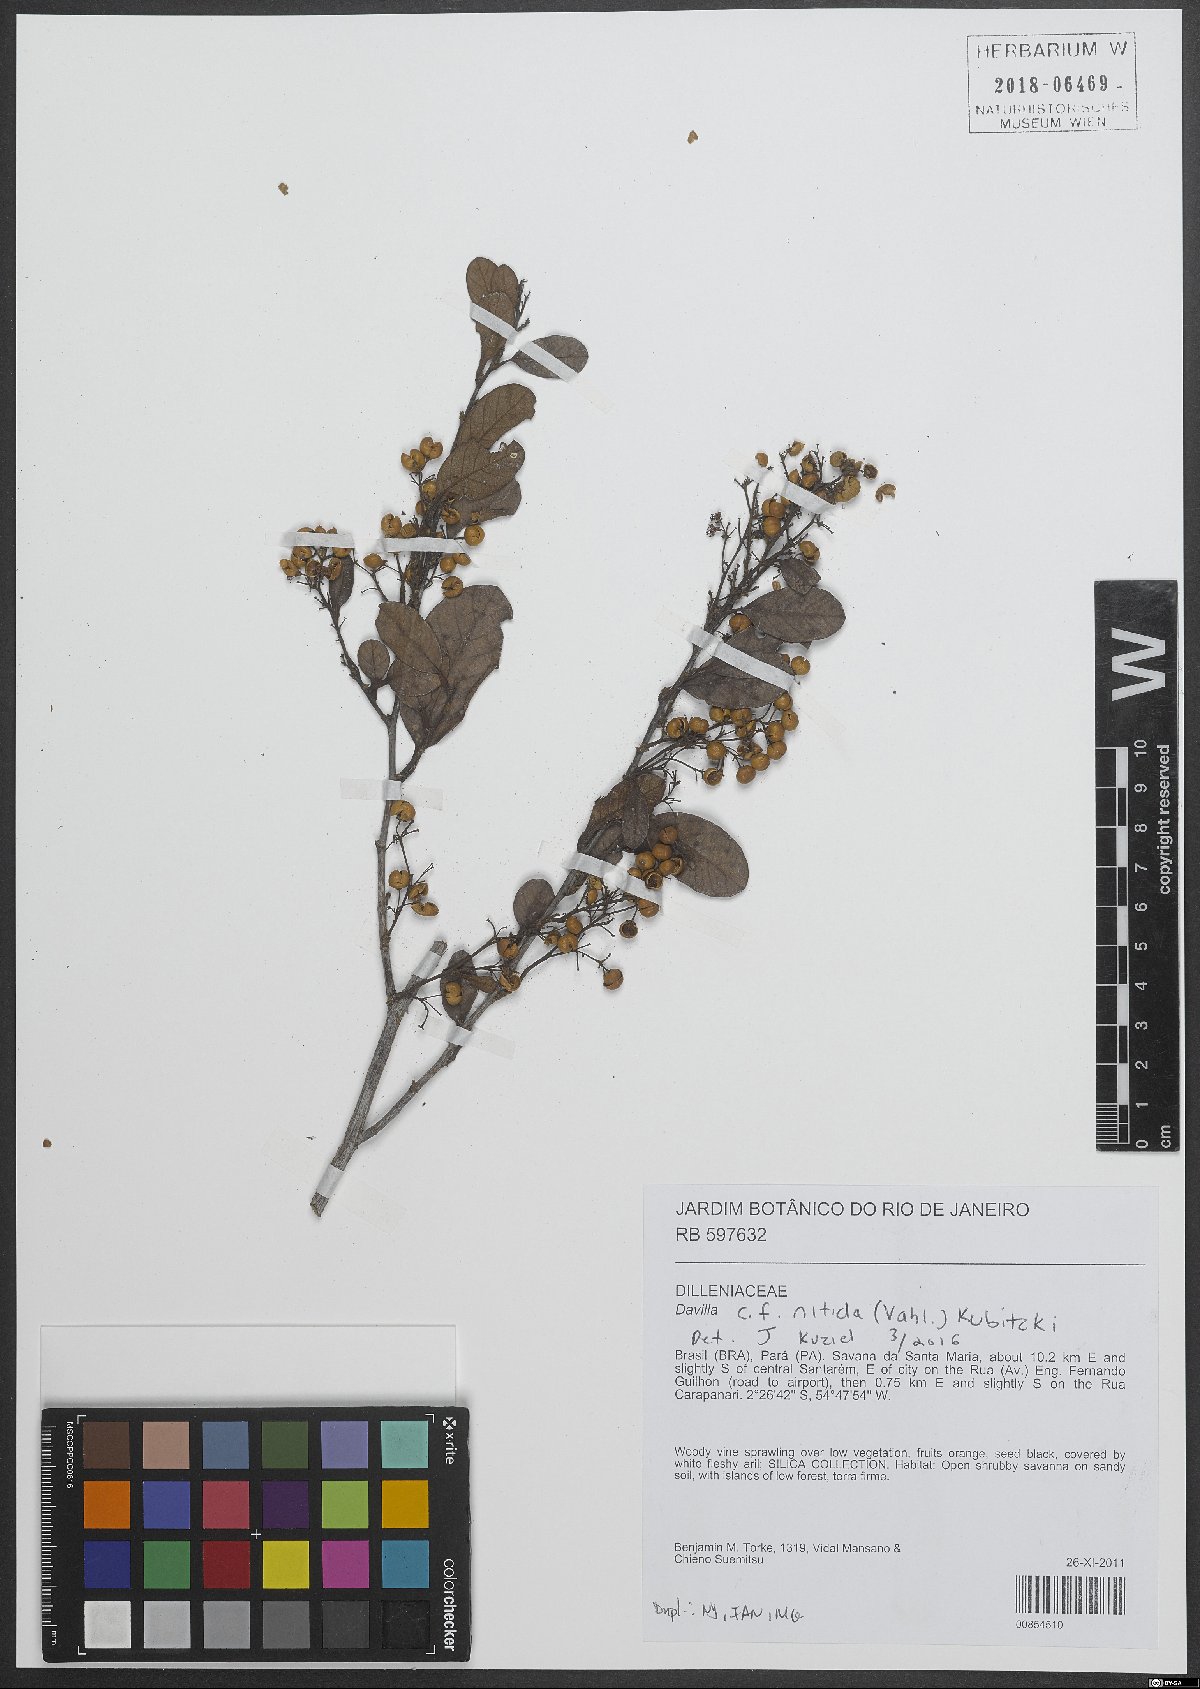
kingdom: Plantae
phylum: Tracheophyta
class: Magnoliopsida
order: Dilleniales
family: Dilleniaceae
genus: Davilla
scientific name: Davilla nitida
